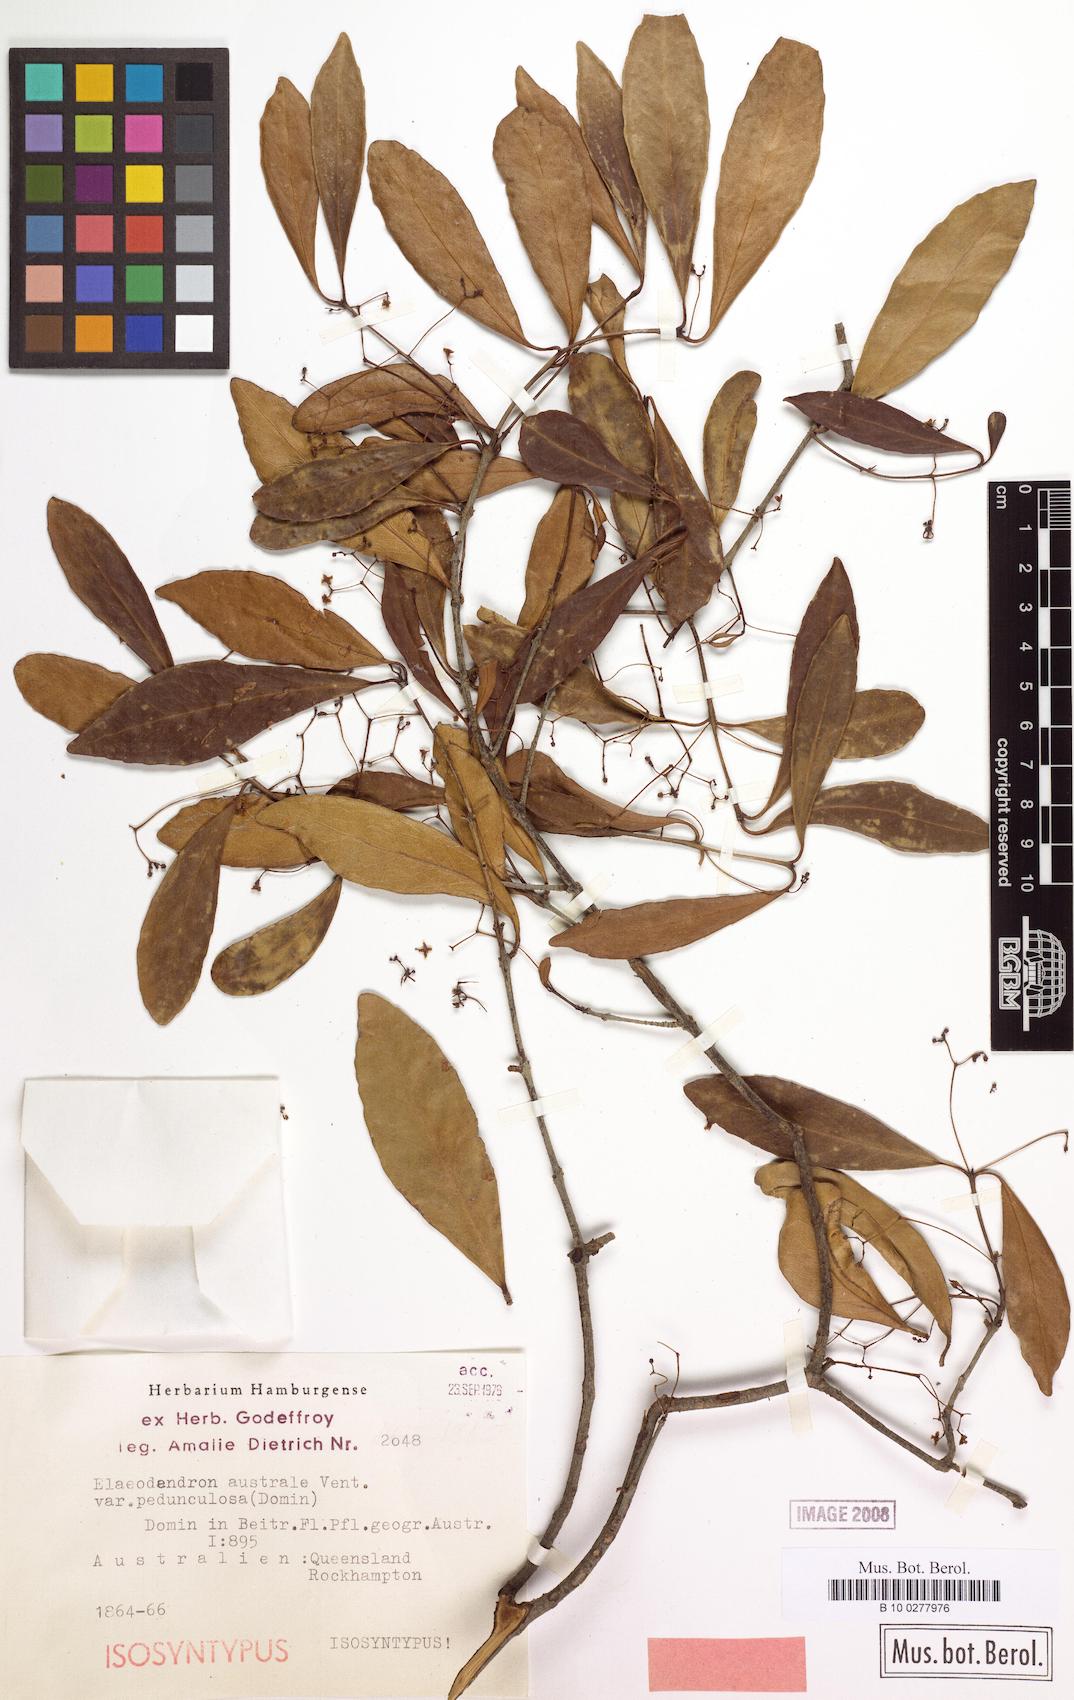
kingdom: Plantae
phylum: Tracheophyta
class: Magnoliopsida
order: Celastrales
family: Celastraceae
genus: Elaeodendron
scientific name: Elaeodendron australe
